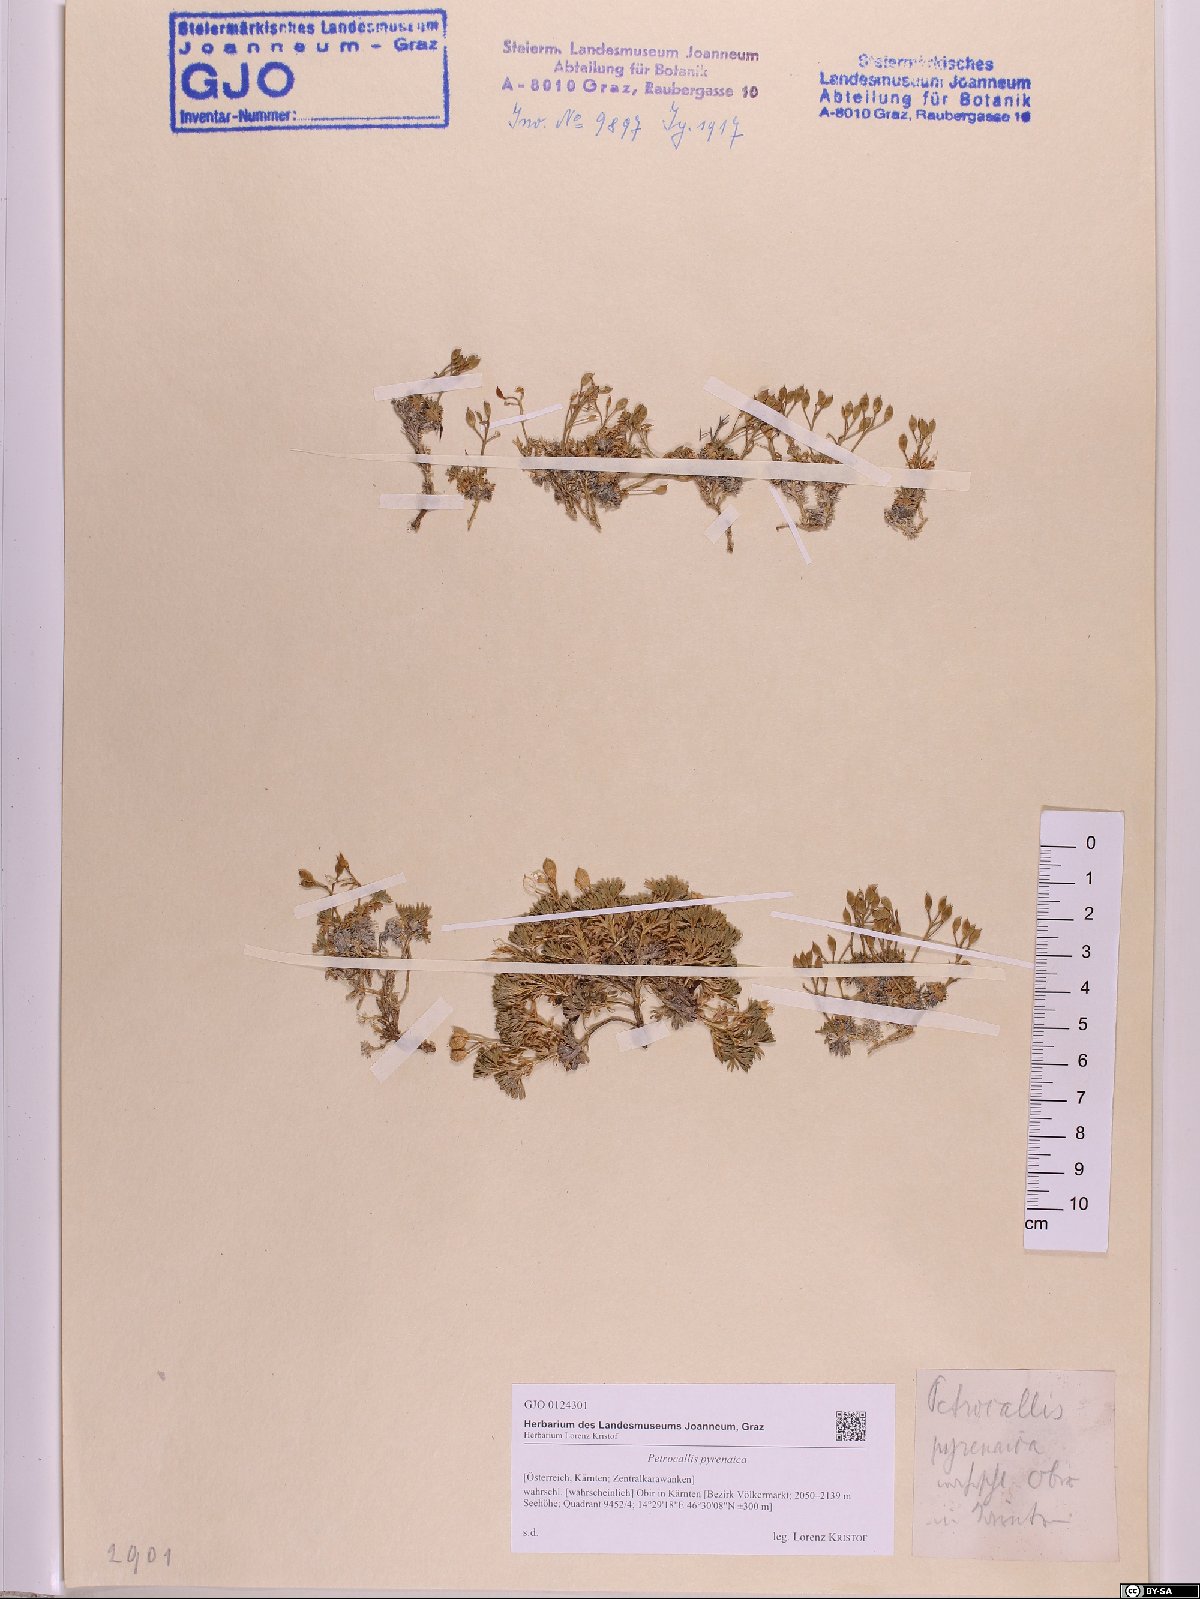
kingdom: Plantae
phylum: Tracheophyta
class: Magnoliopsida
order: Brassicales
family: Brassicaceae
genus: Petrocallis
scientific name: Petrocallis pyrenaica
